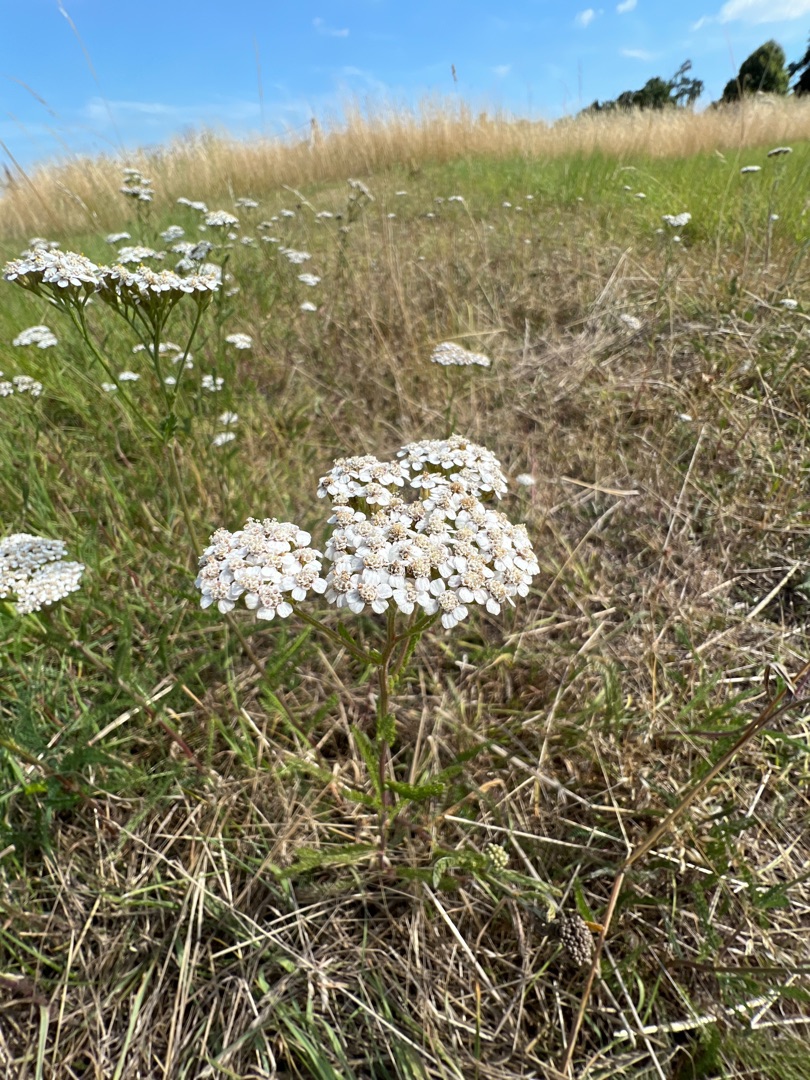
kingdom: Plantae
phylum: Tracheophyta
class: Magnoliopsida
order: Asterales
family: Asteraceae
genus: Achillea
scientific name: Achillea millefolium
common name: Almindelig røllike
